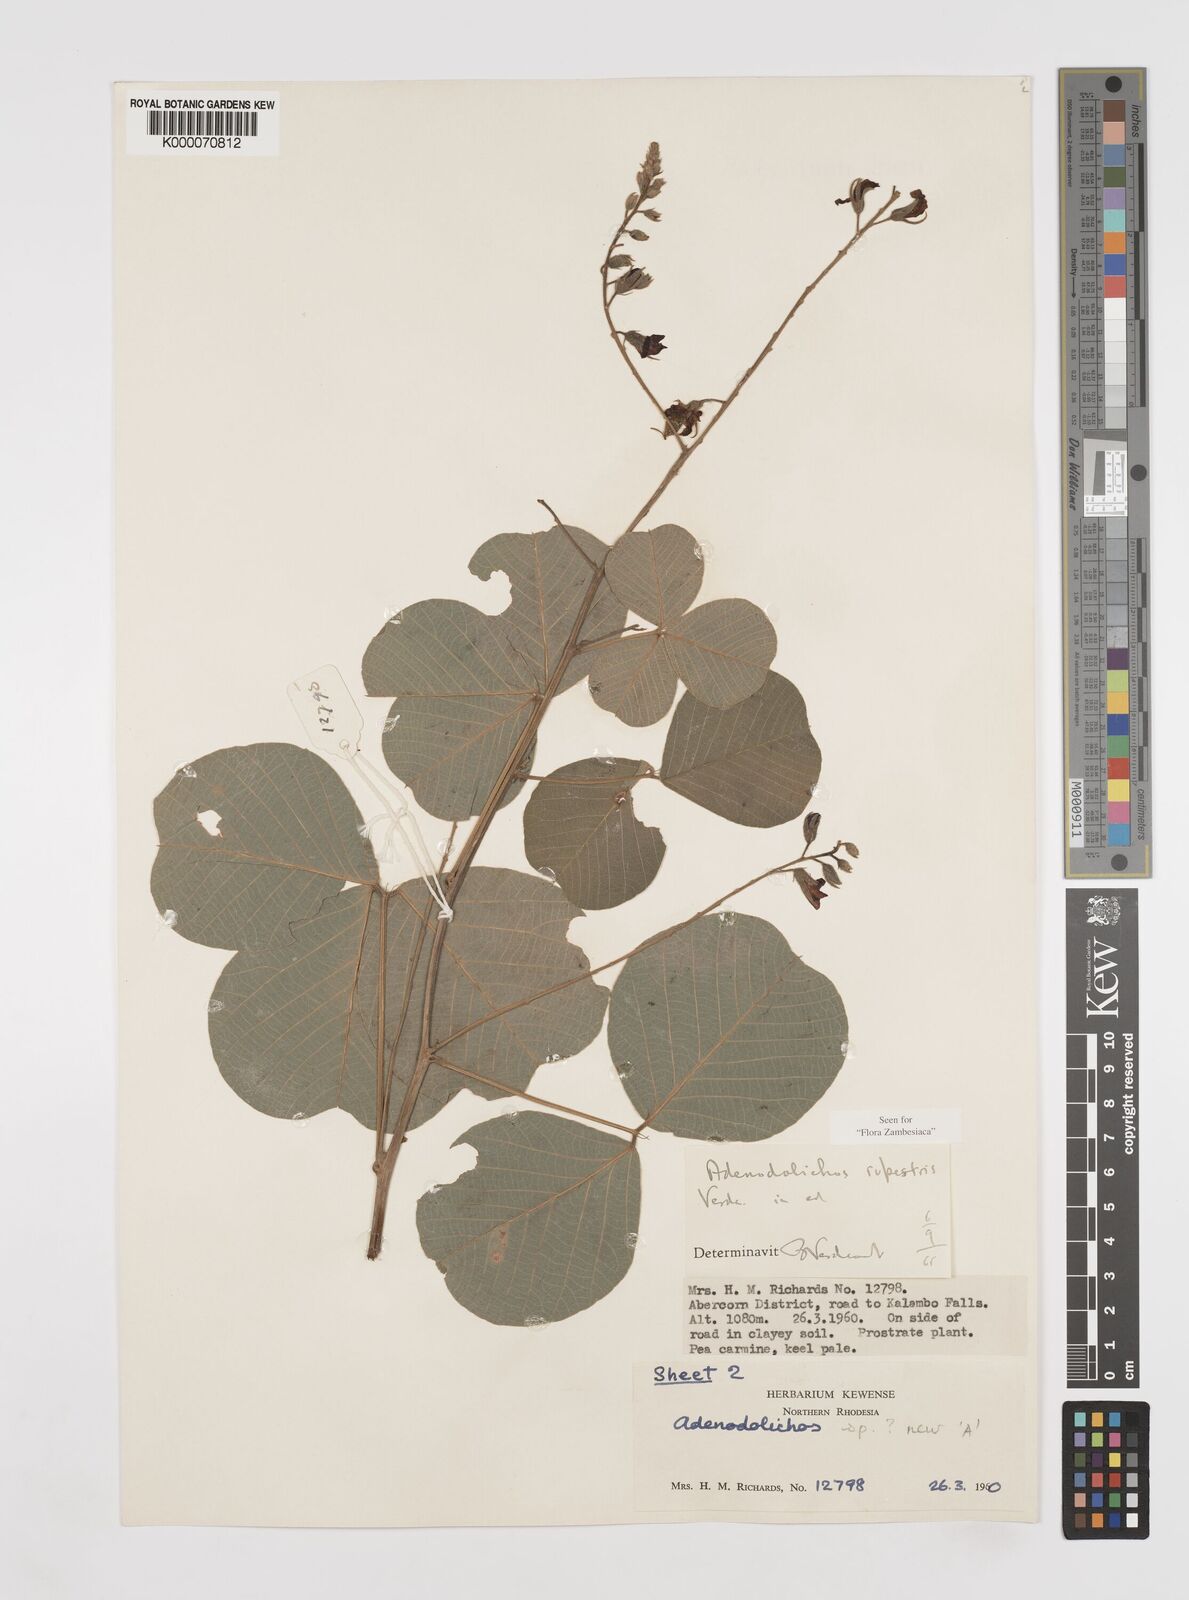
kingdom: Plantae
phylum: Tracheophyta
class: Magnoliopsida
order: Fabales
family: Fabaceae
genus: Adenodolichos
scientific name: Adenodolichos rupestris
